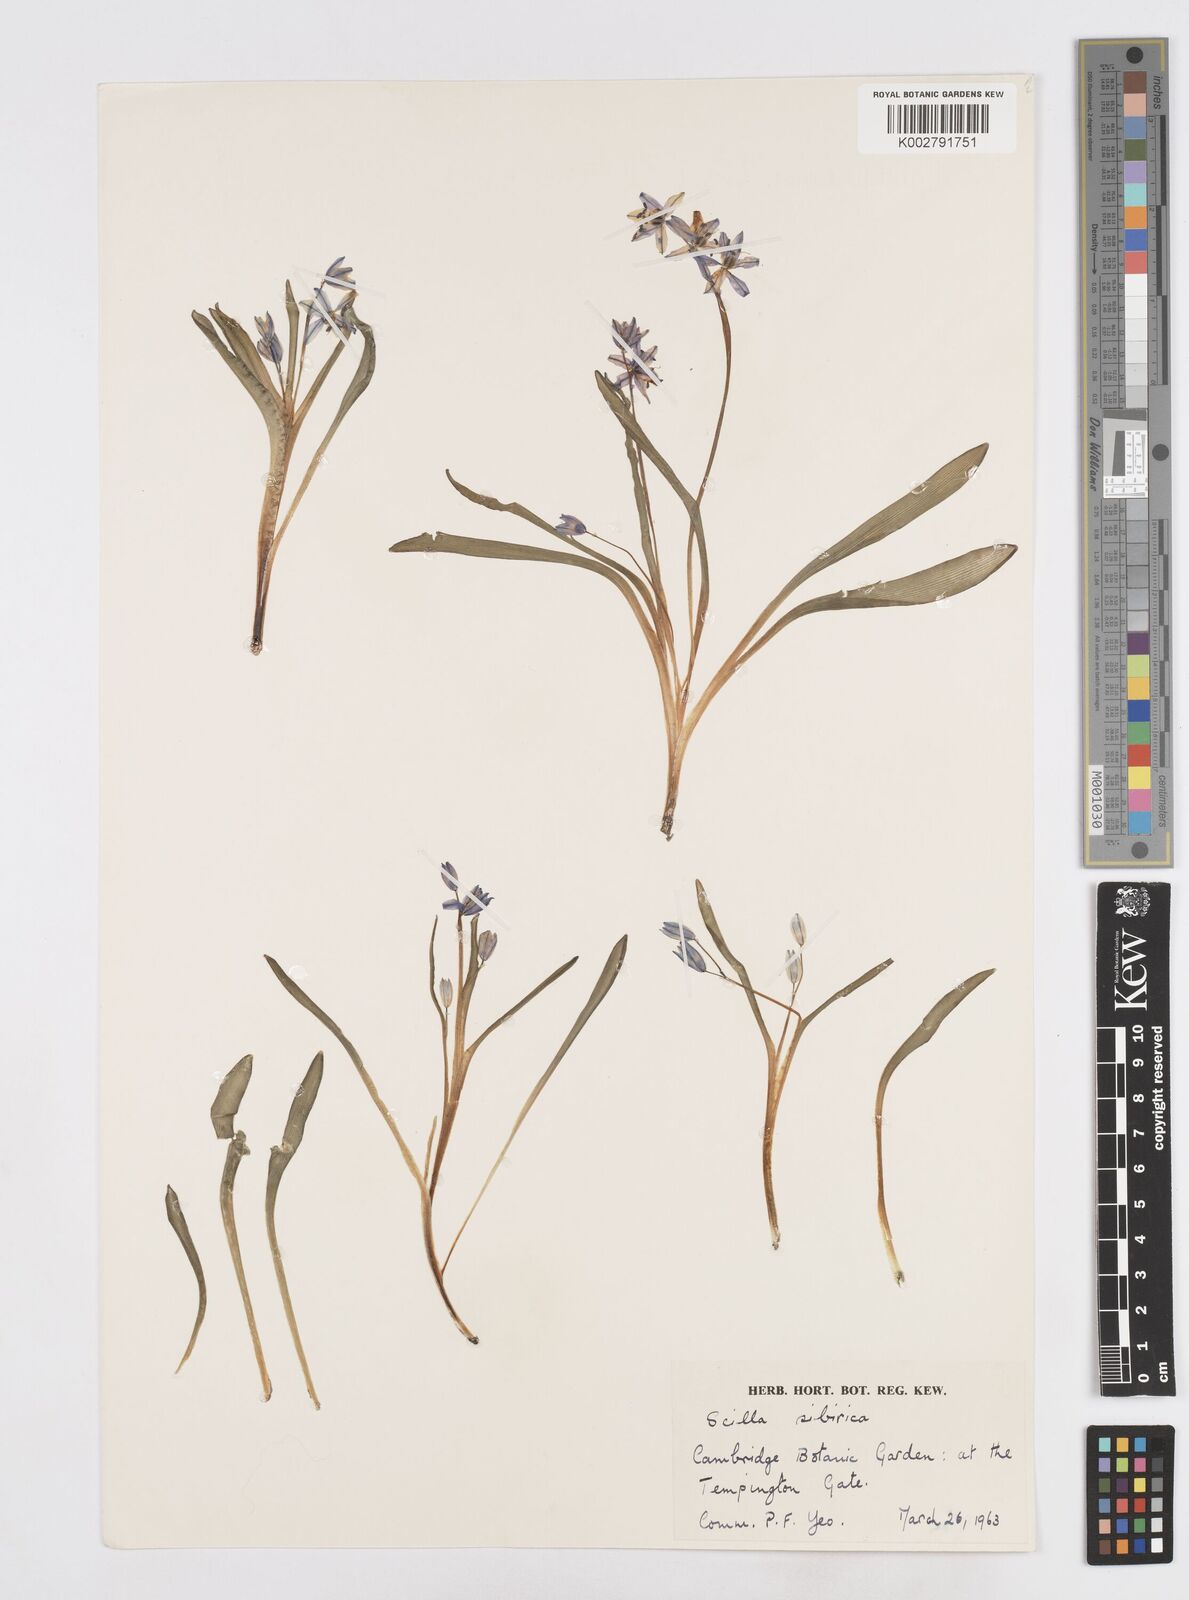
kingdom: Plantae
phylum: Tracheophyta
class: Liliopsida
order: Asparagales
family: Asparagaceae
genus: Scilla
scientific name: Scilla siberica
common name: Siberian squill
